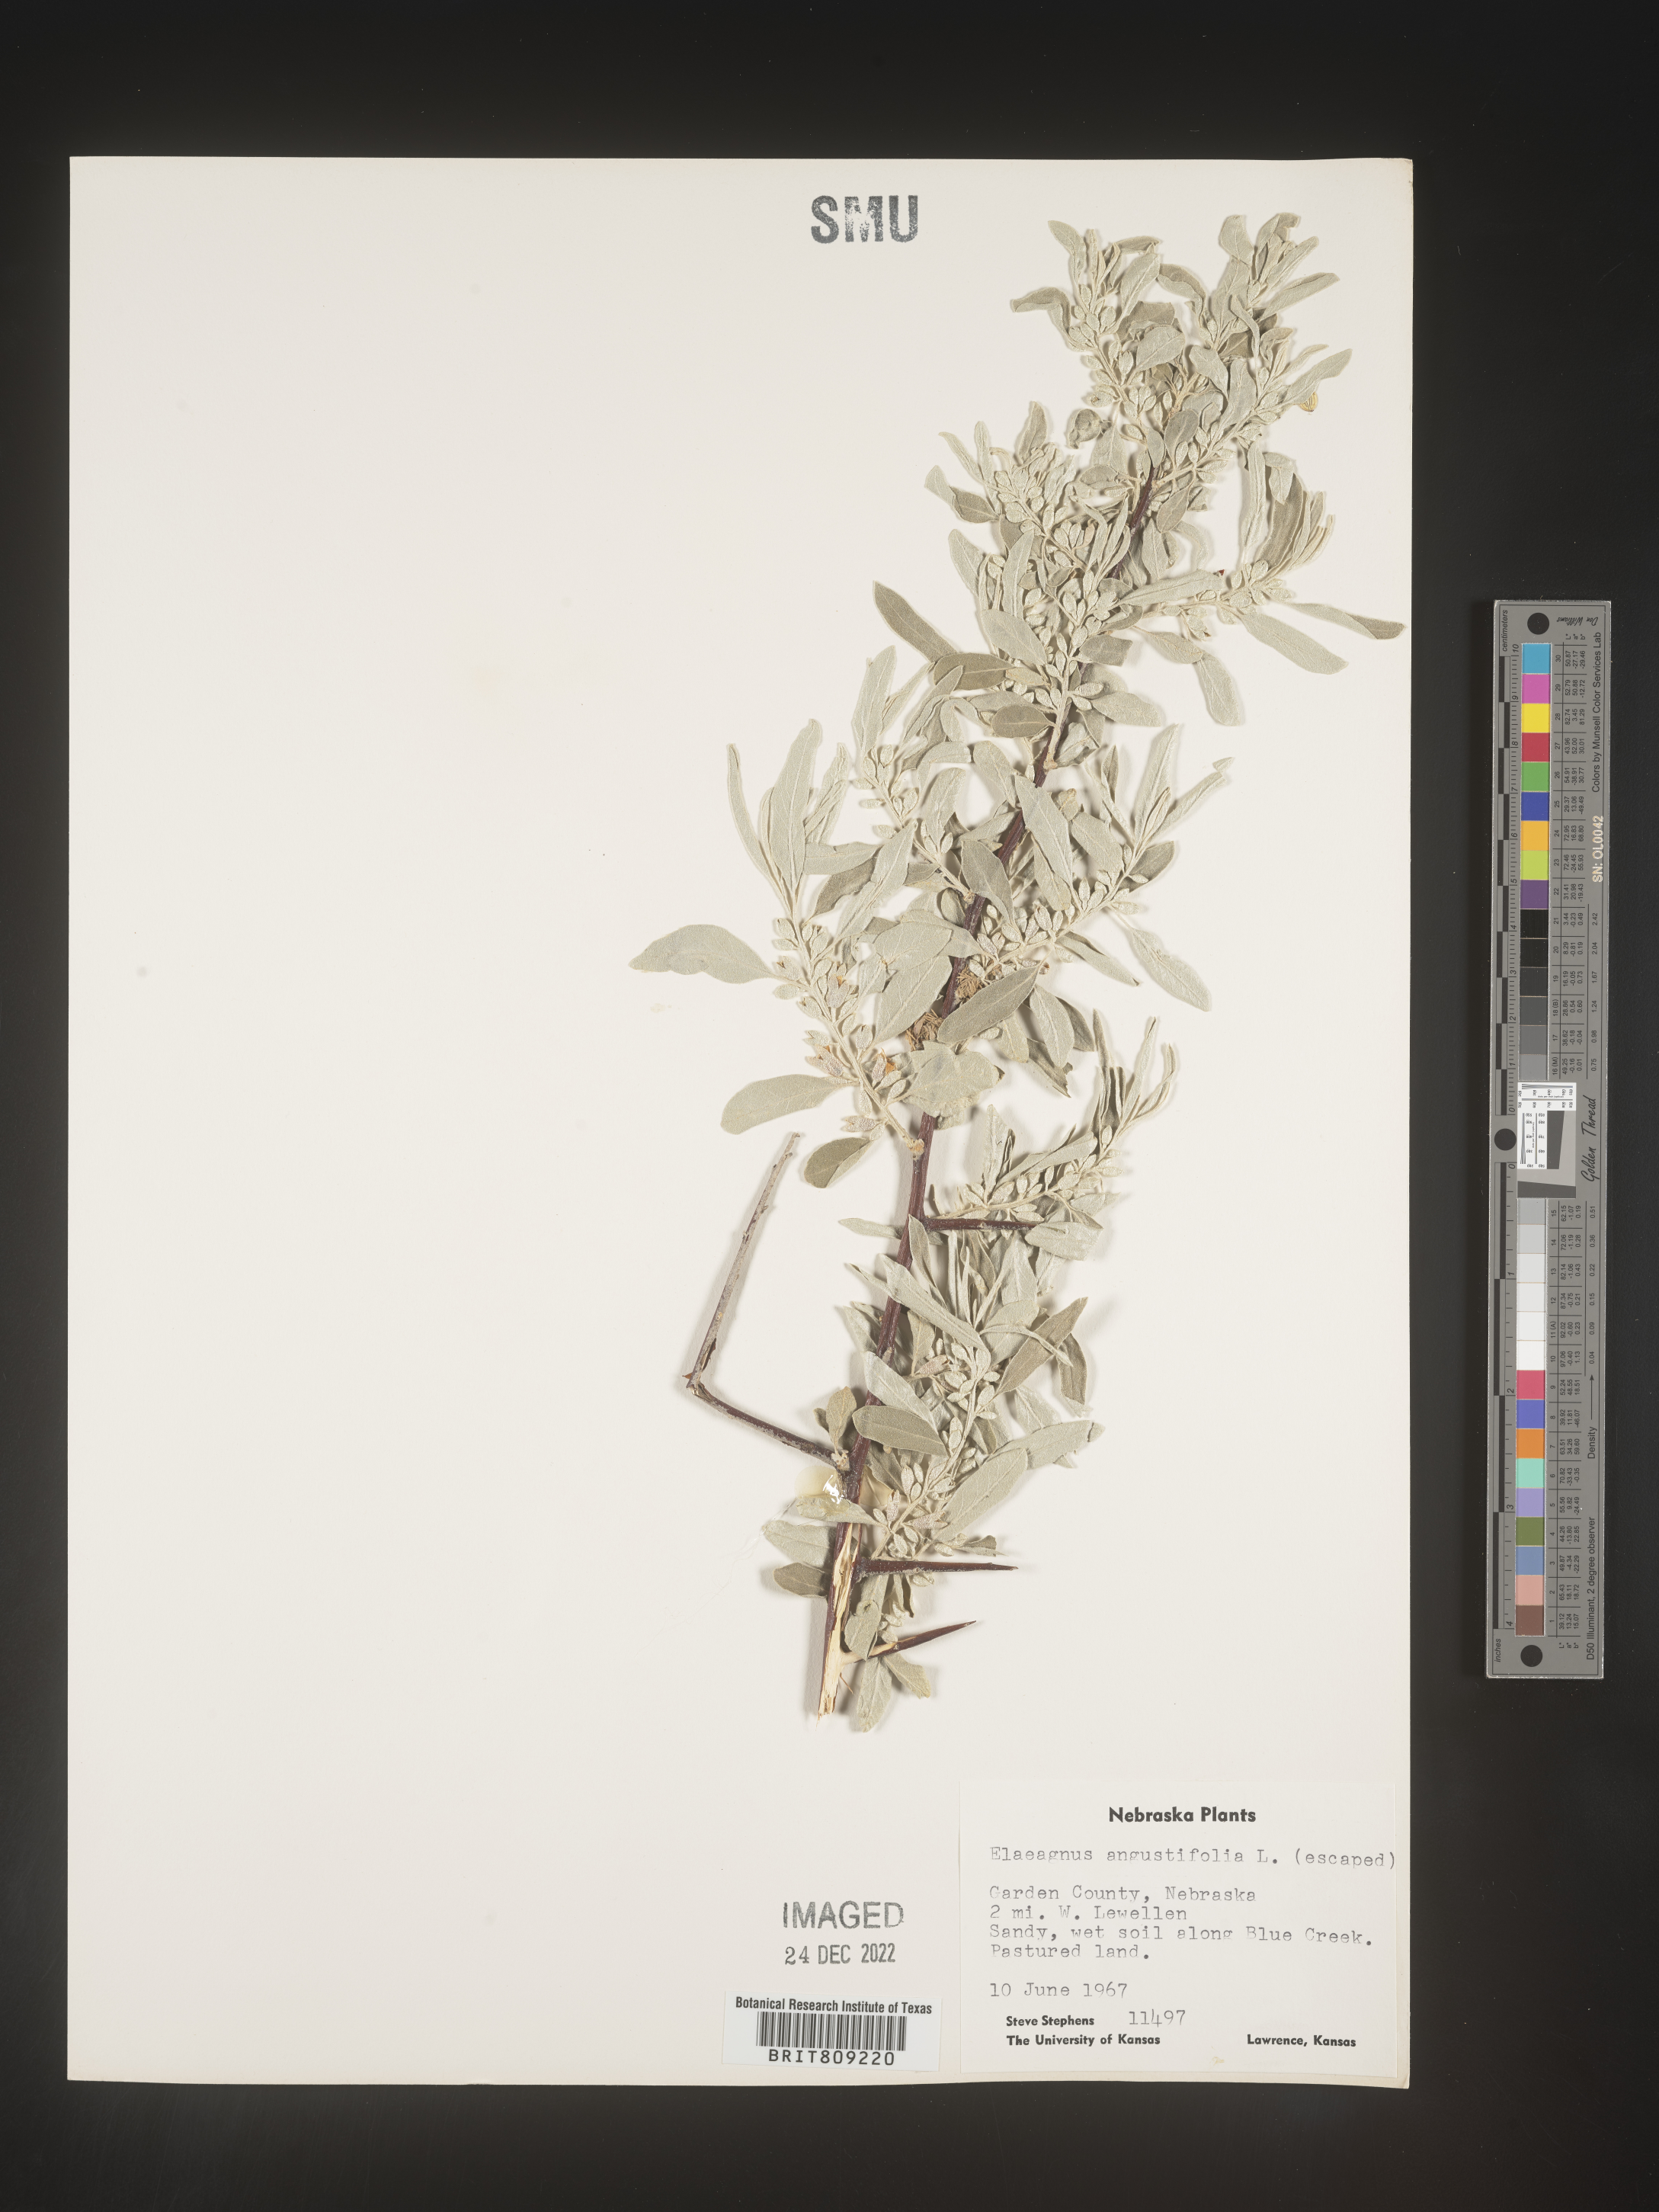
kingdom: Plantae
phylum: Tracheophyta
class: Magnoliopsida
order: Rosales
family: Elaeagnaceae
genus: Elaeagnus
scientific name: Elaeagnus angustifolia
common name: Russian olive
